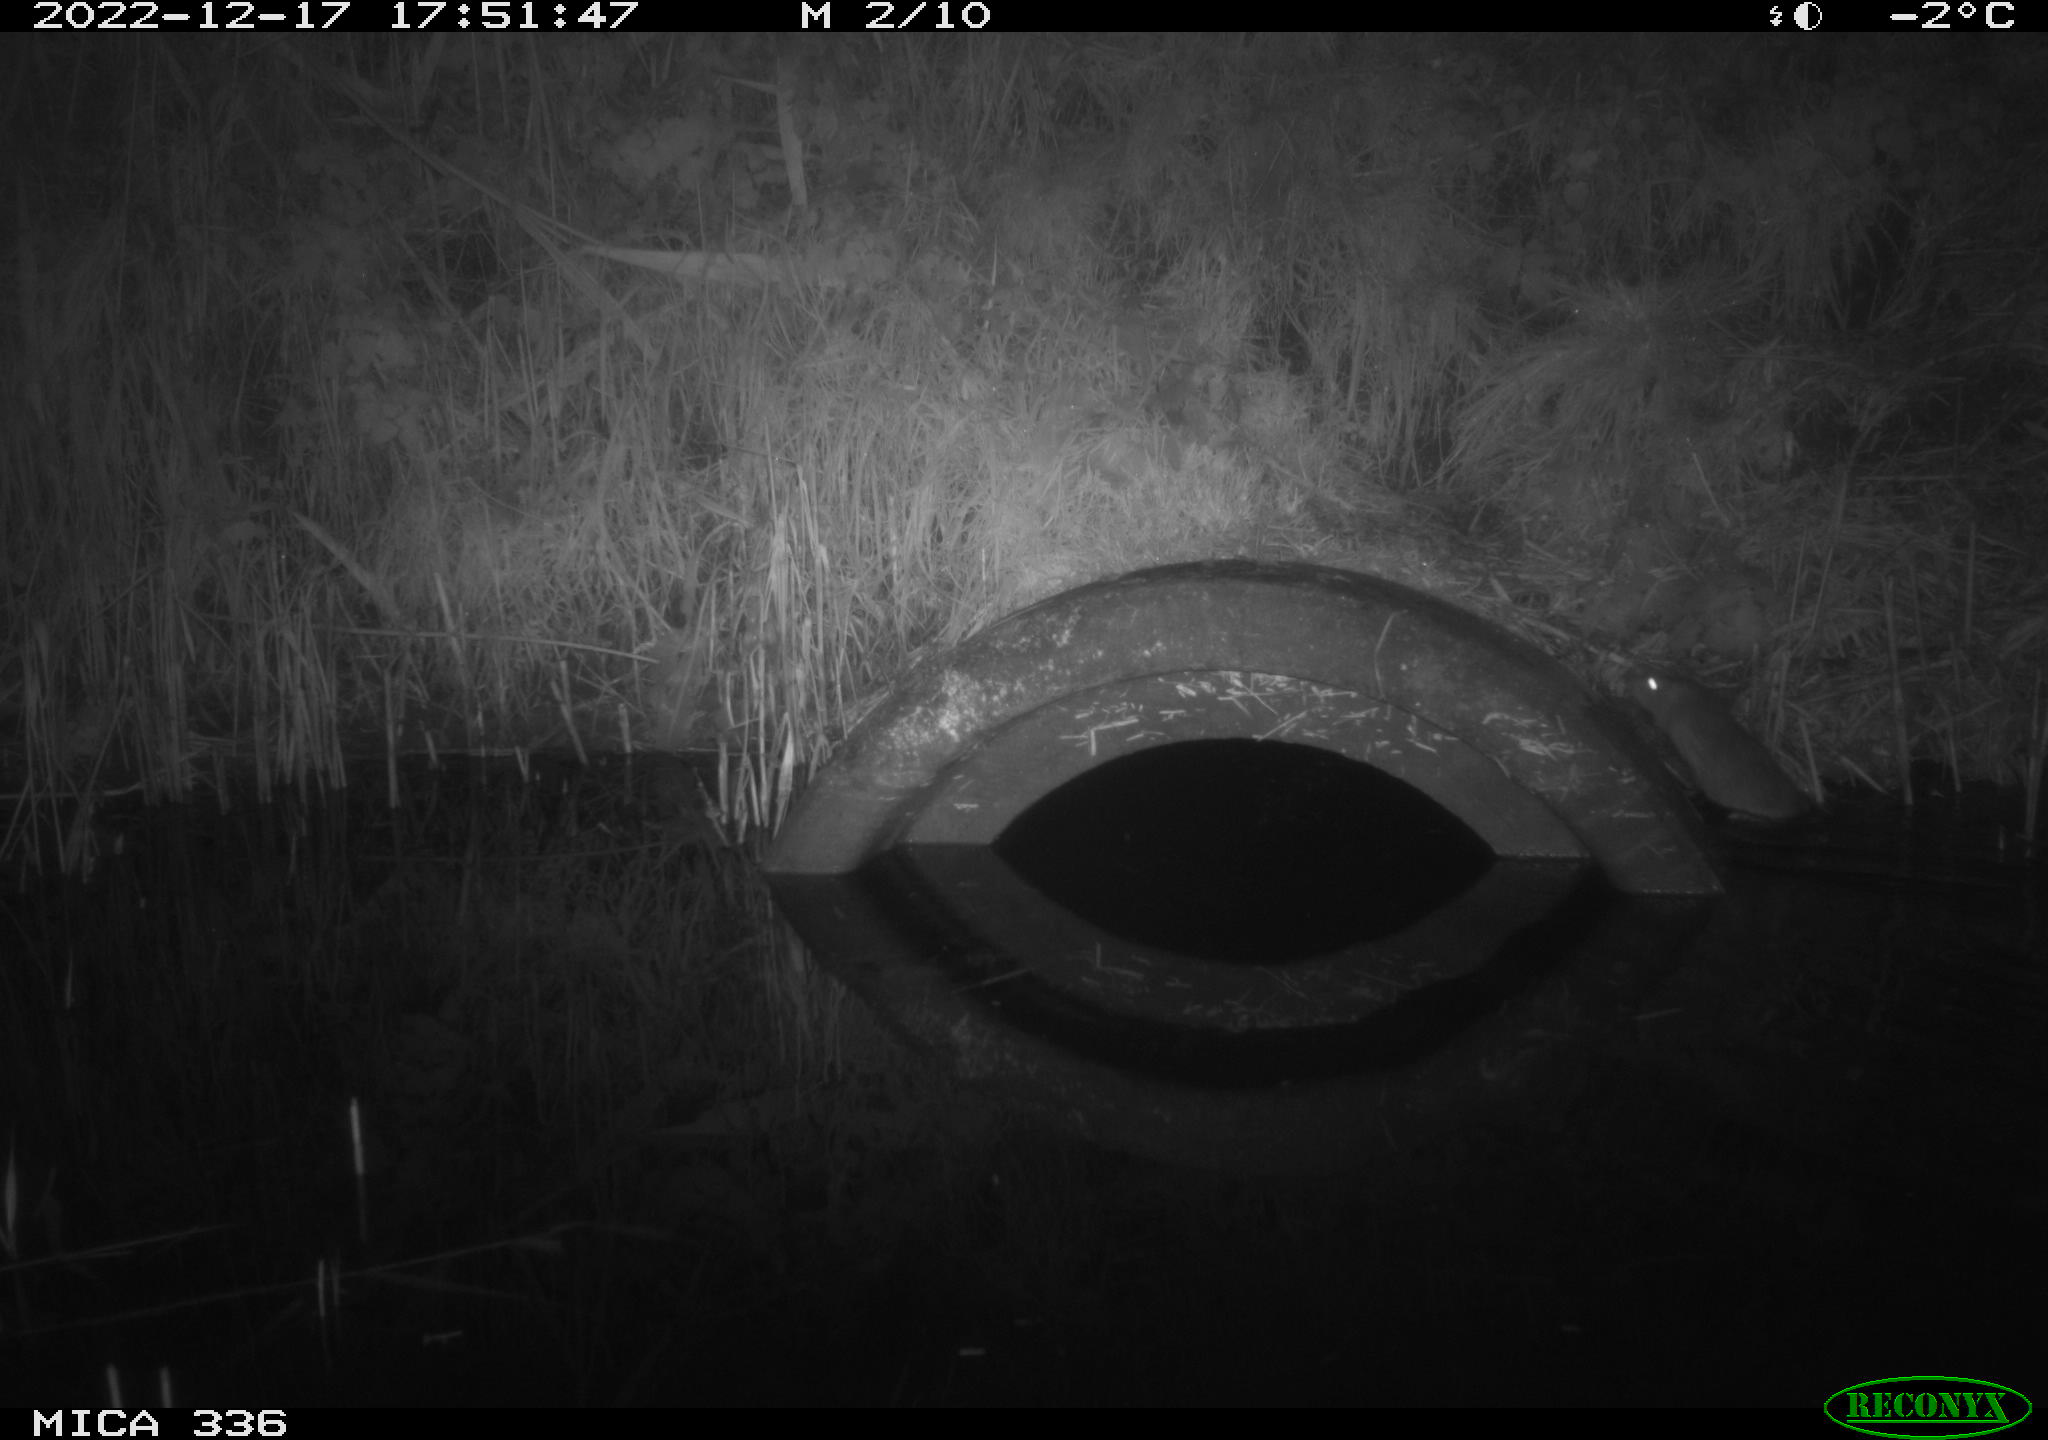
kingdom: Animalia
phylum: Chordata
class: Mammalia
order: Rodentia
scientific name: Rodentia
